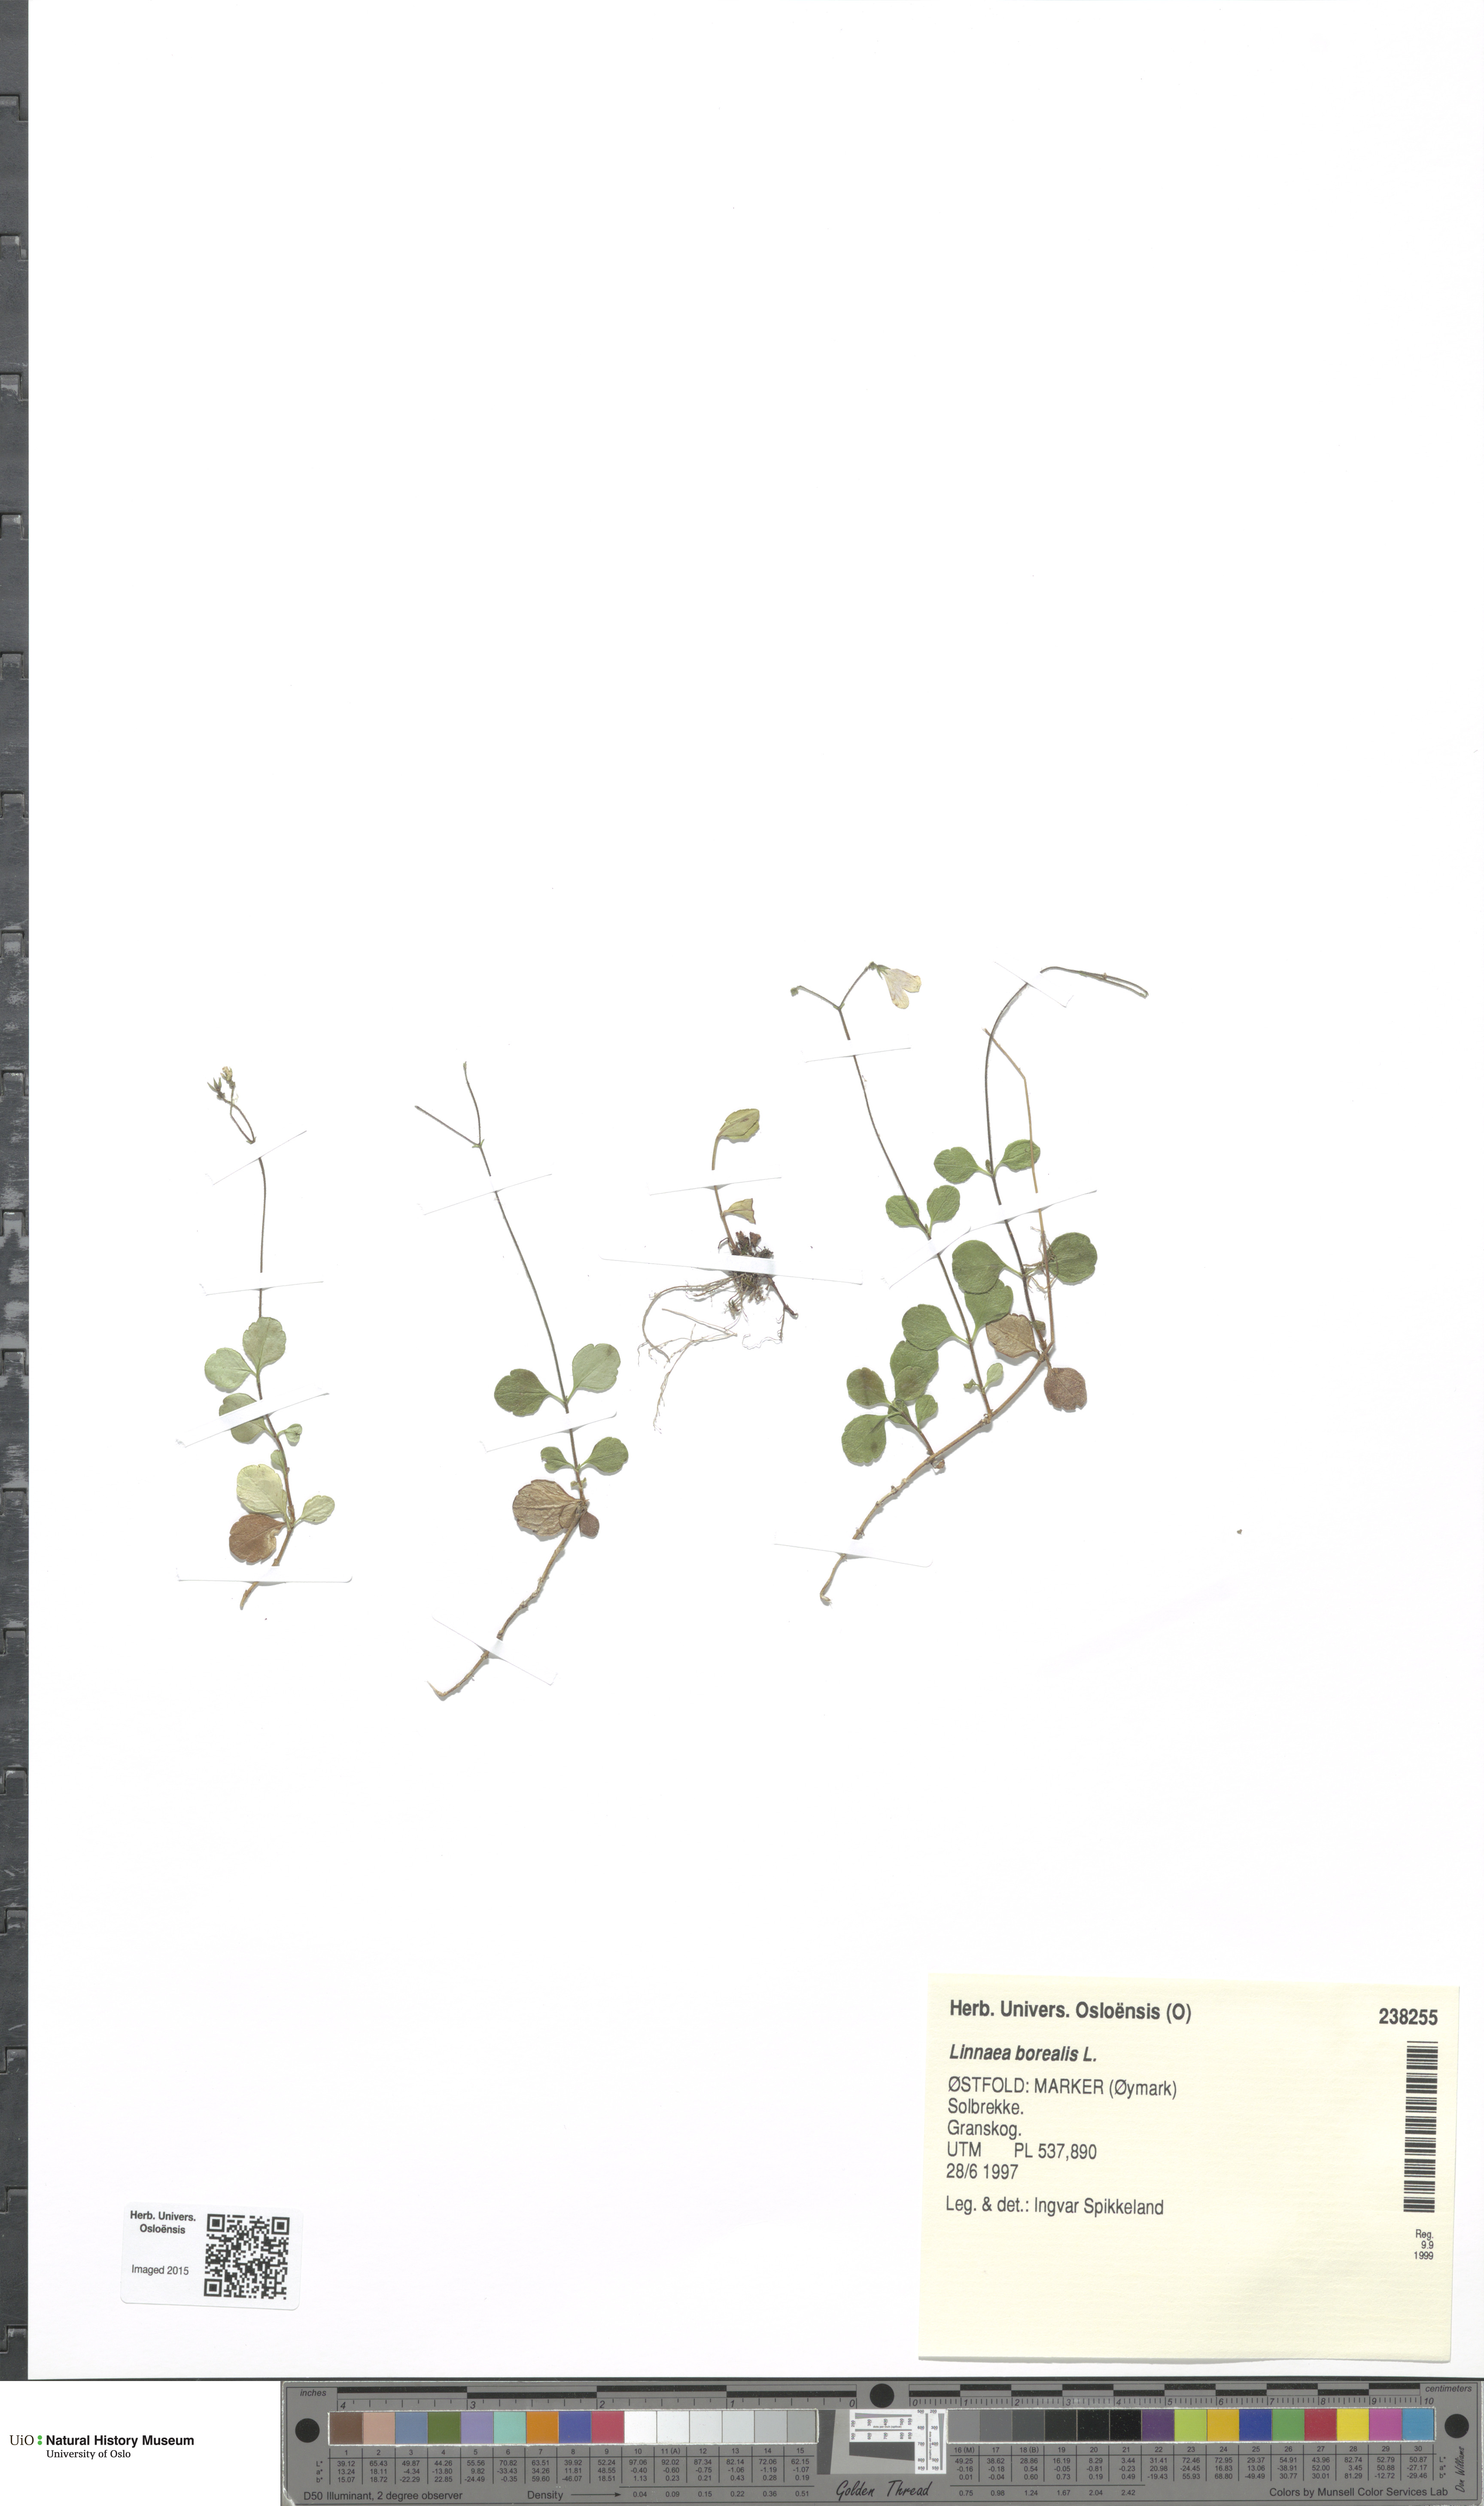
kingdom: Plantae
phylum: Tracheophyta
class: Magnoliopsida
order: Dipsacales
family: Caprifoliaceae
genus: Linnaea
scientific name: Linnaea borealis
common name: Twinflower
